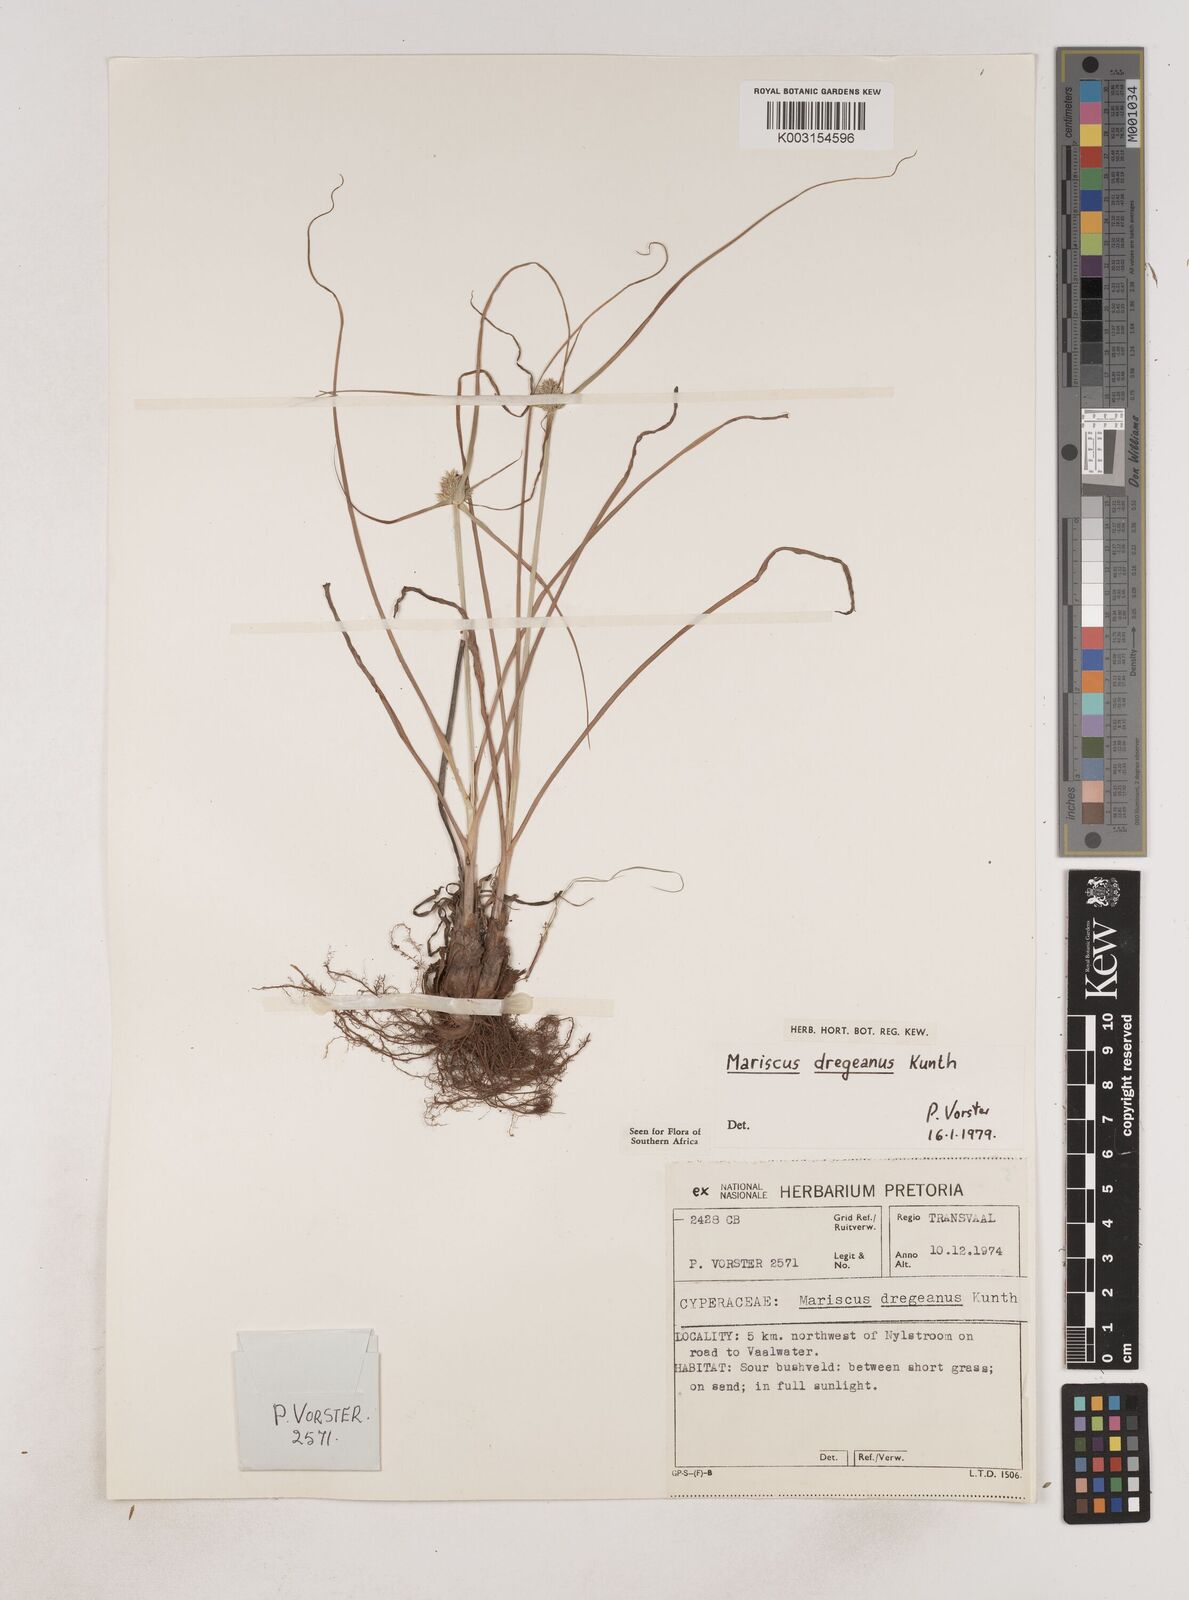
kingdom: Plantae
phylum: Tracheophyta
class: Liliopsida
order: Poales
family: Cyperaceae
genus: Cyperus
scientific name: Cyperus dubius
